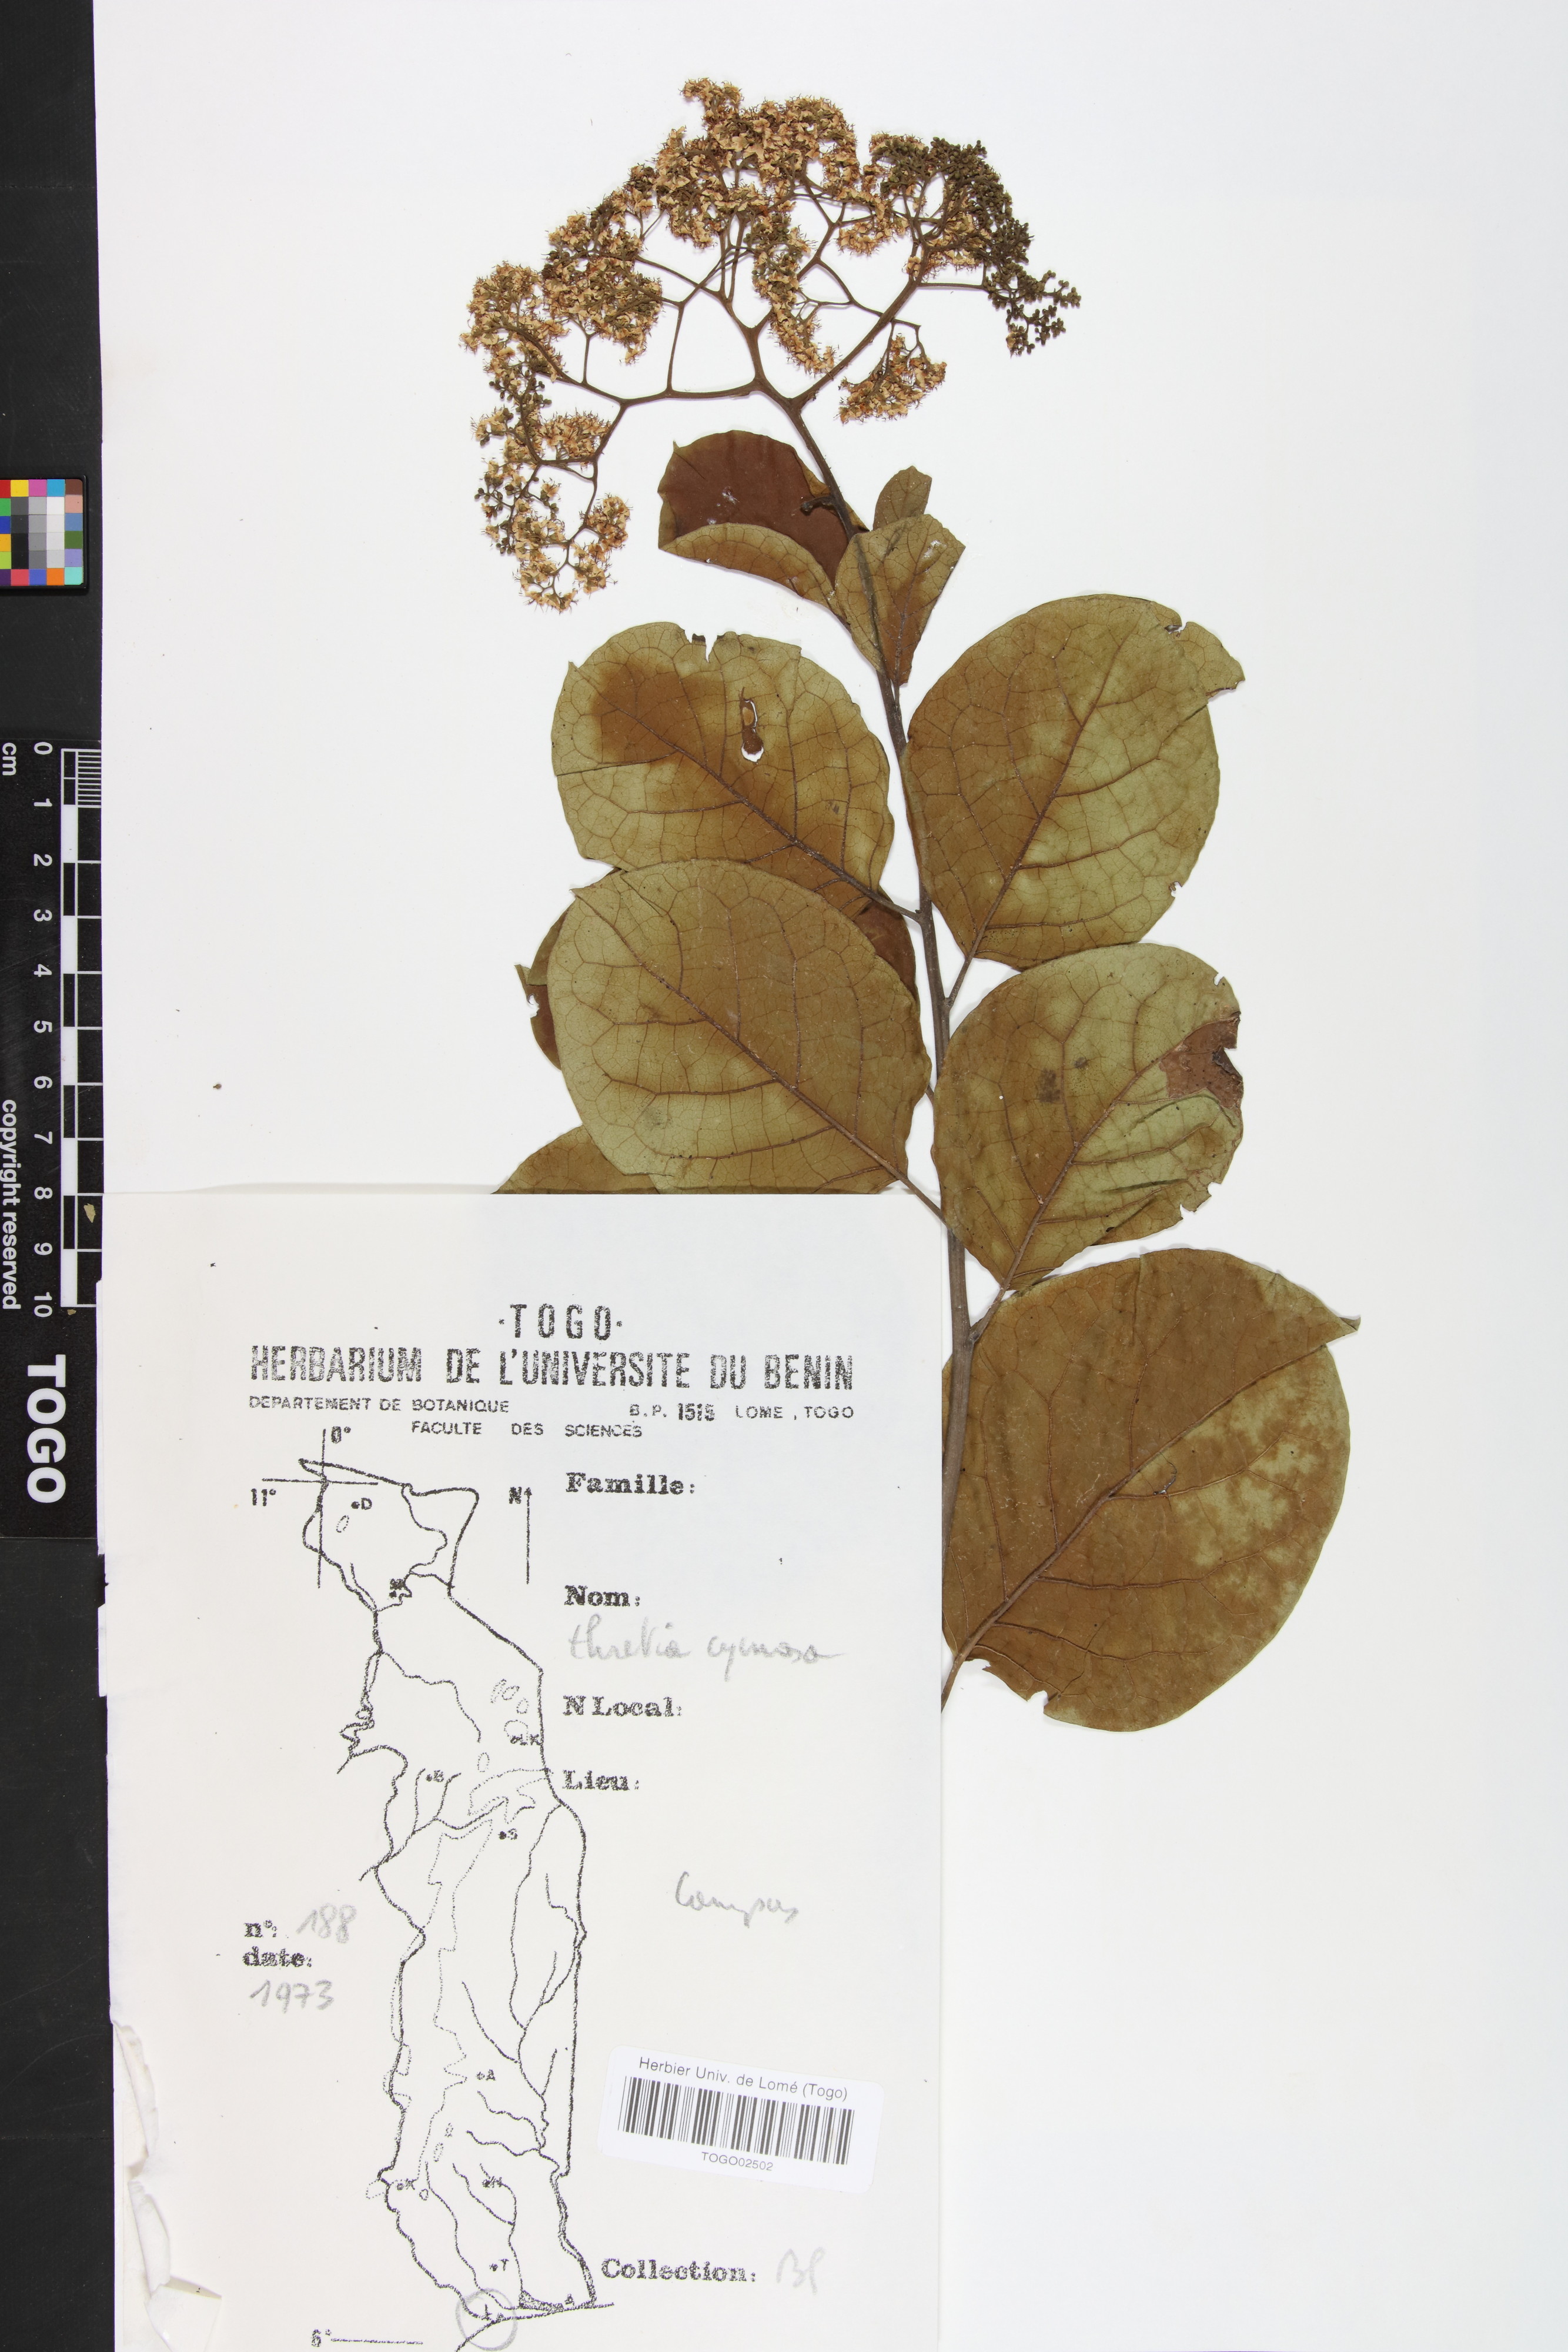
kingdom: Plantae
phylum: Tracheophyta
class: Magnoliopsida
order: Boraginales
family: Ehretiaceae
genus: Ehretia
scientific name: Ehretia cymosa
